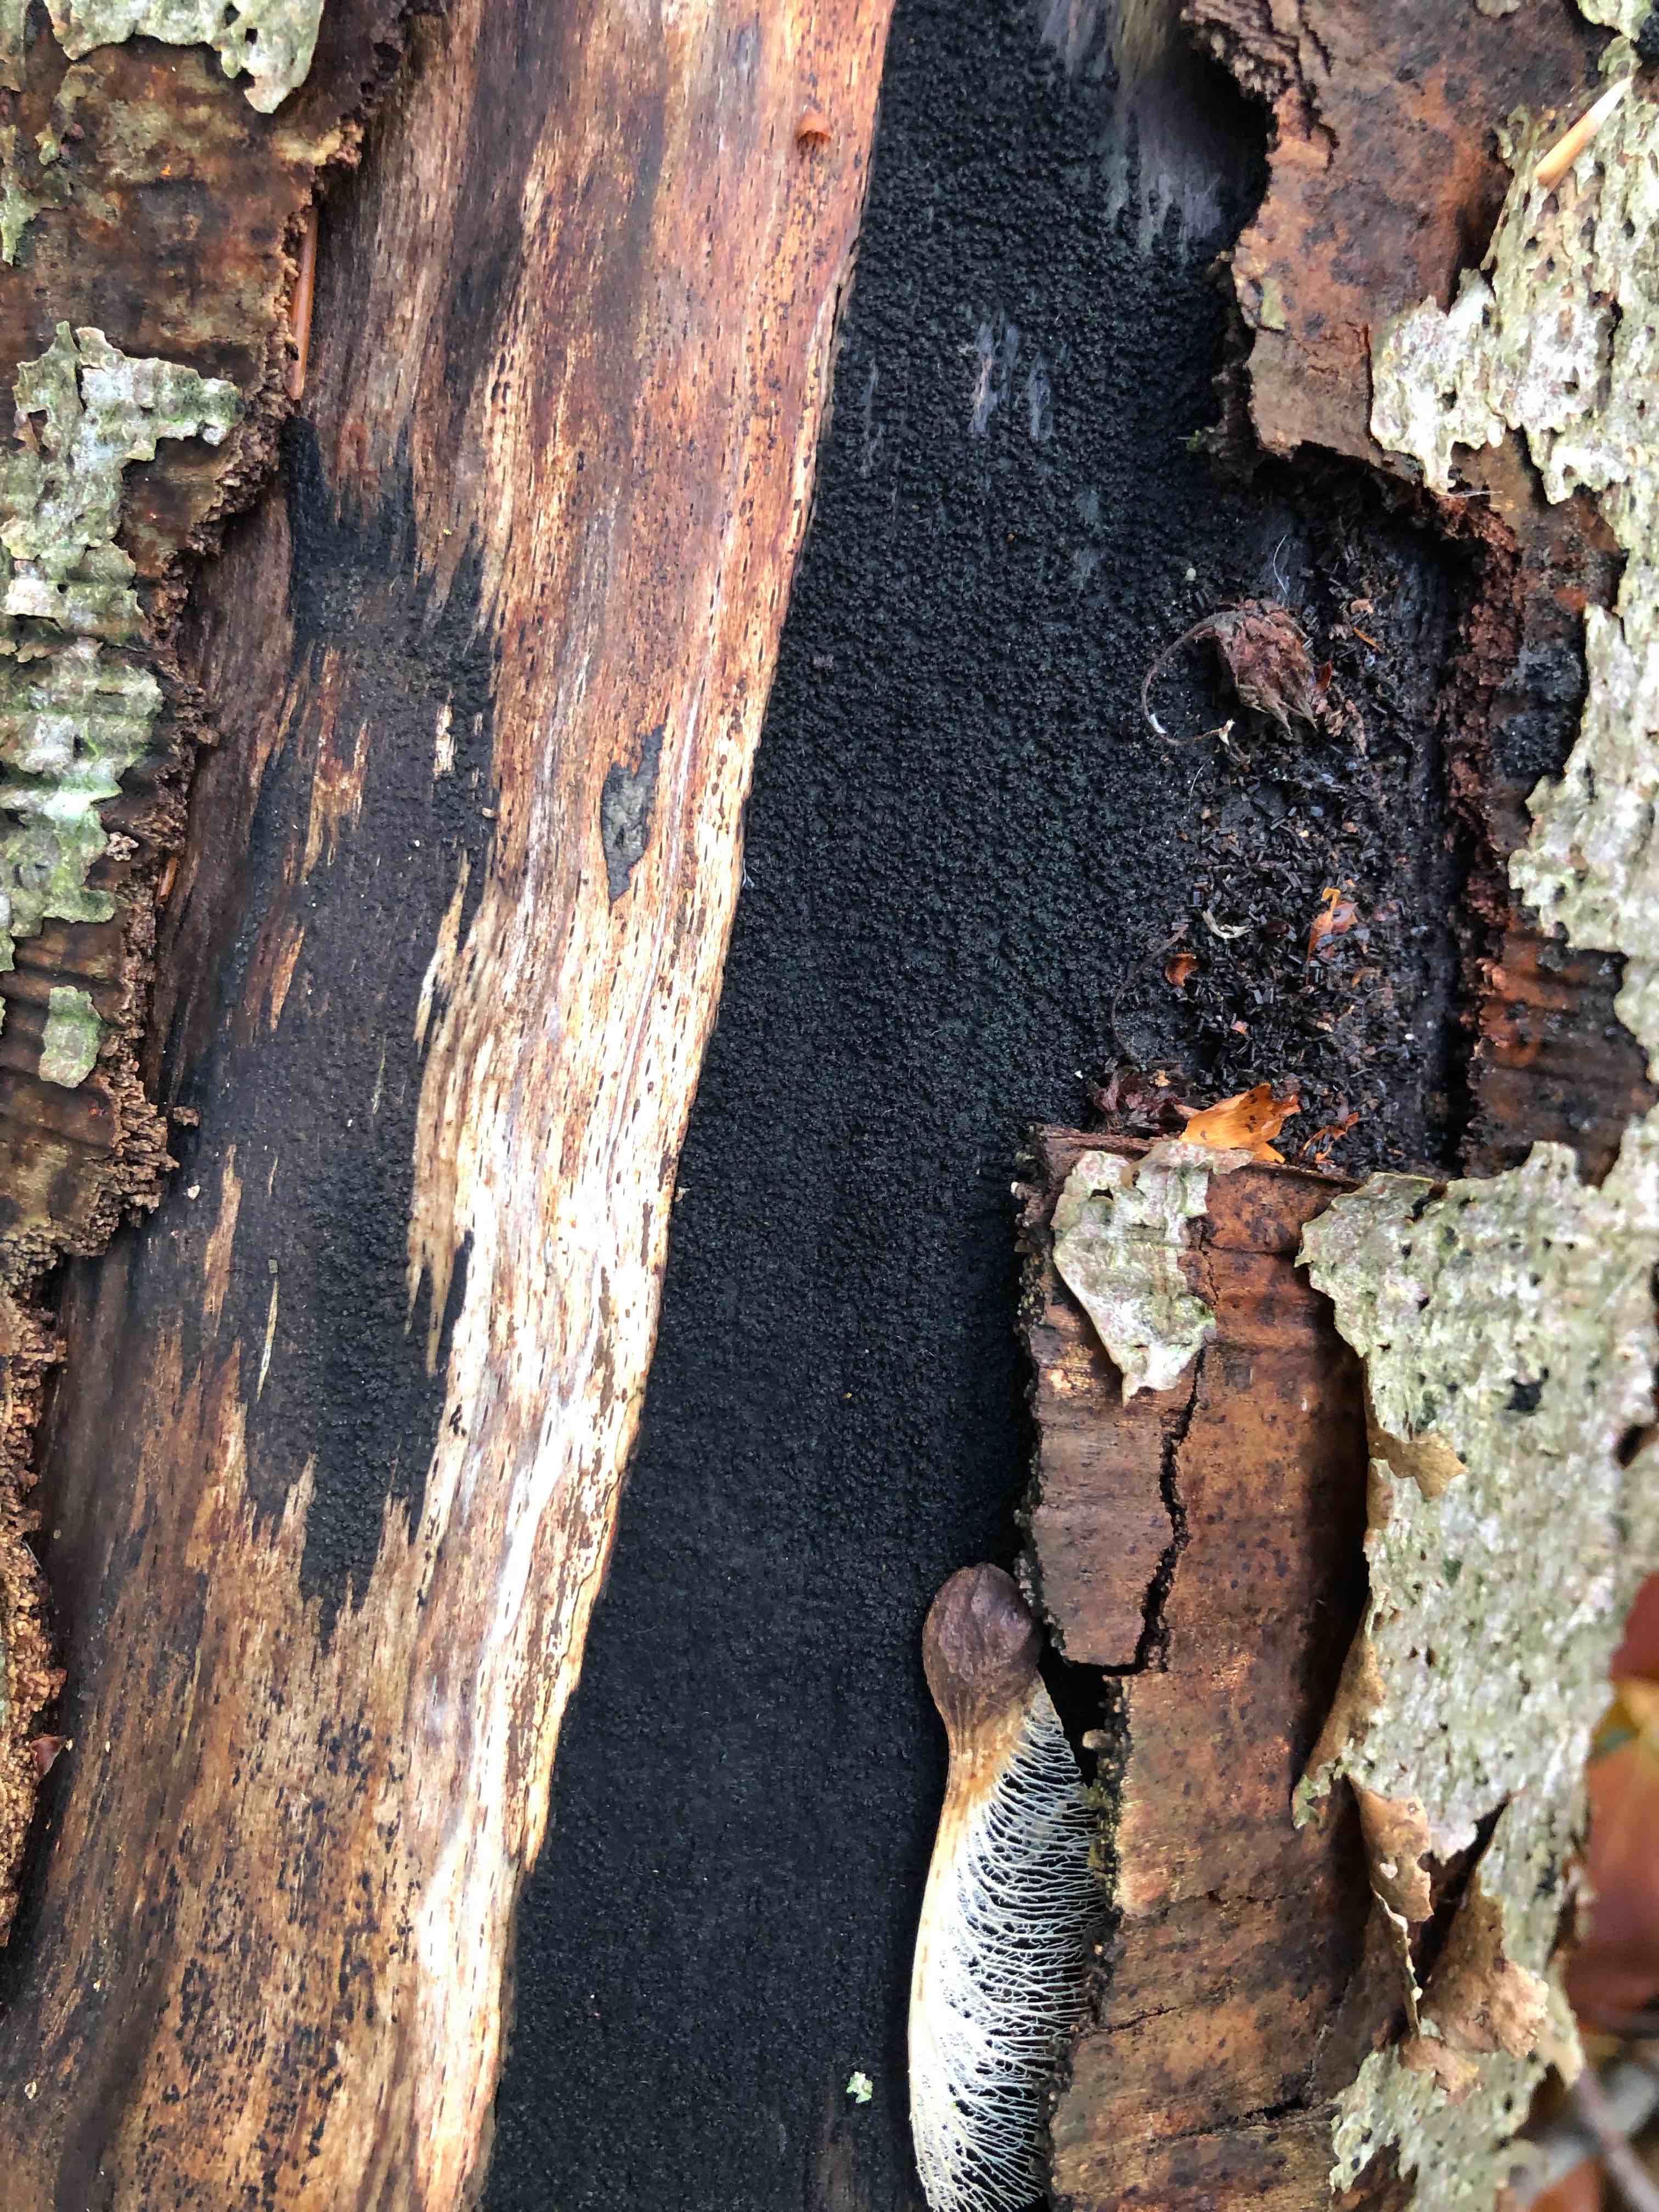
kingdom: Fungi
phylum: Ascomycota
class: Sordariomycetes
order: Xylariales
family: Diatrypaceae
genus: Eutypa
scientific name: Eutypa spinosa
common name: grov kulskorpe
